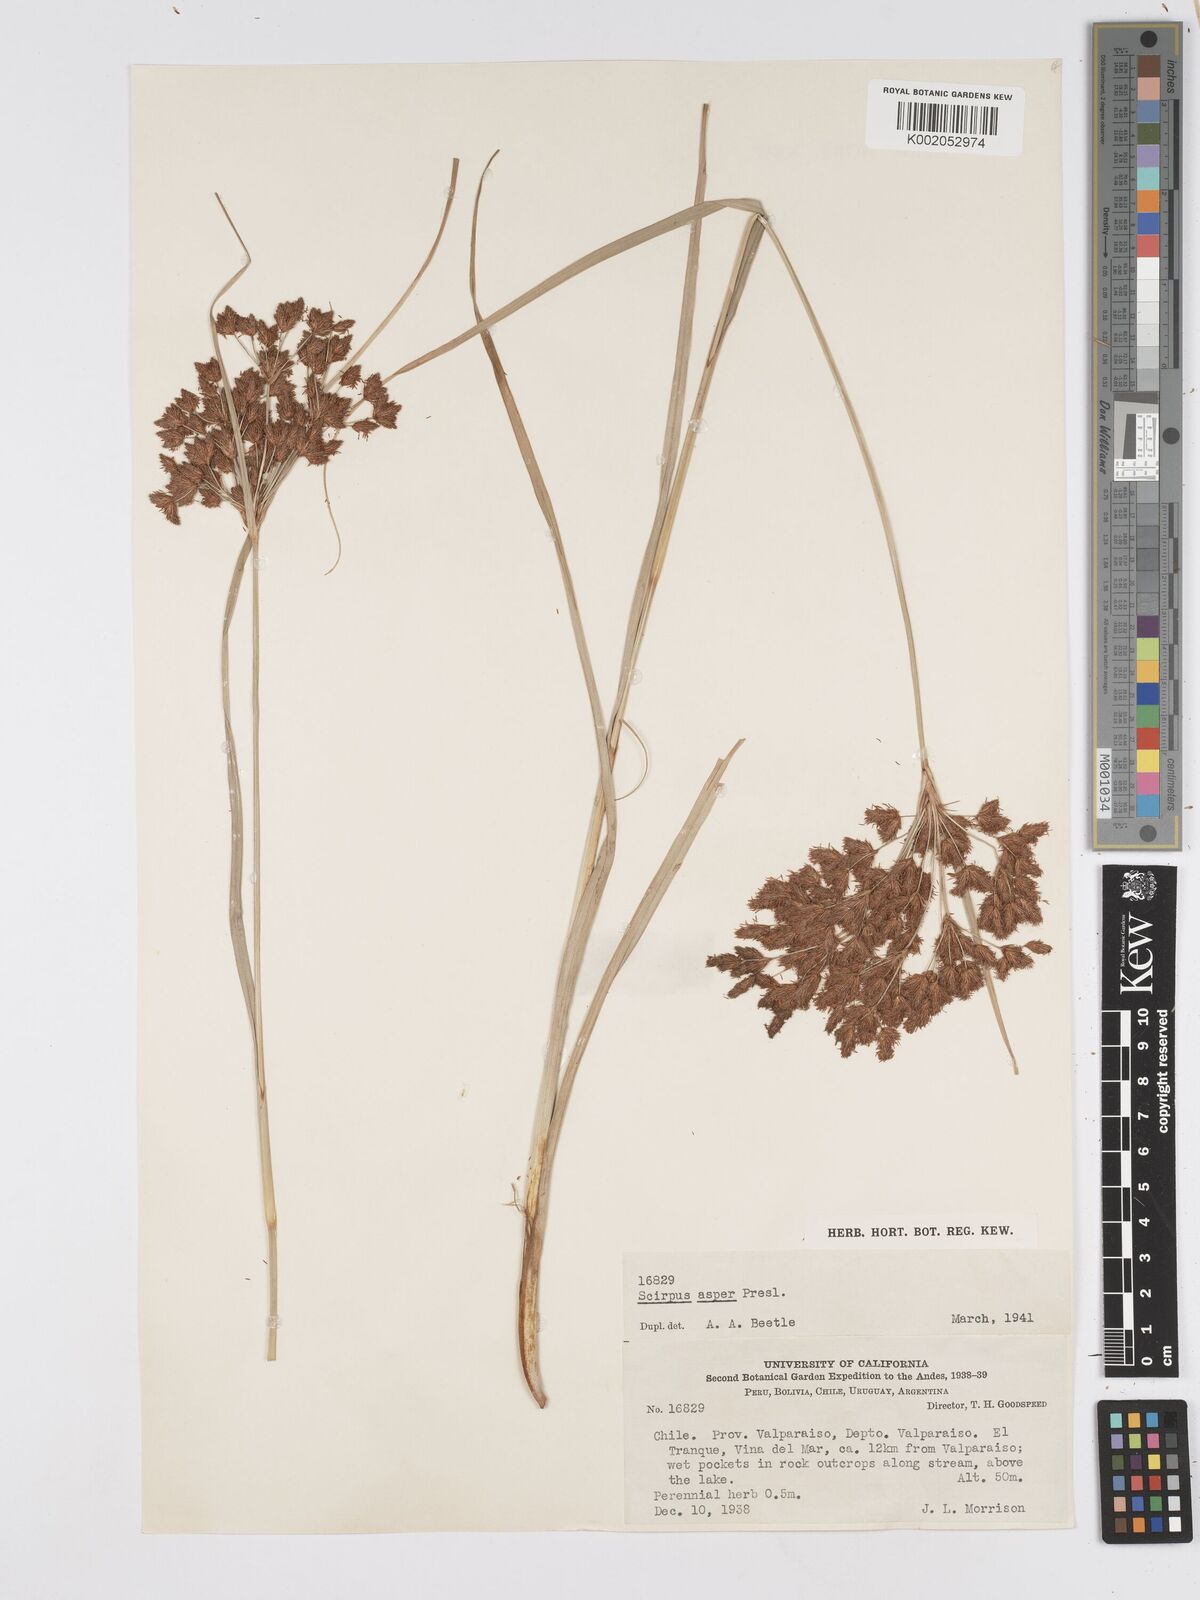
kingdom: Plantae
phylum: Tracheophyta
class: Liliopsida
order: Poales
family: Cyperaceae
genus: Rhodoscirpus
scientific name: Rhodoscirpus asper
